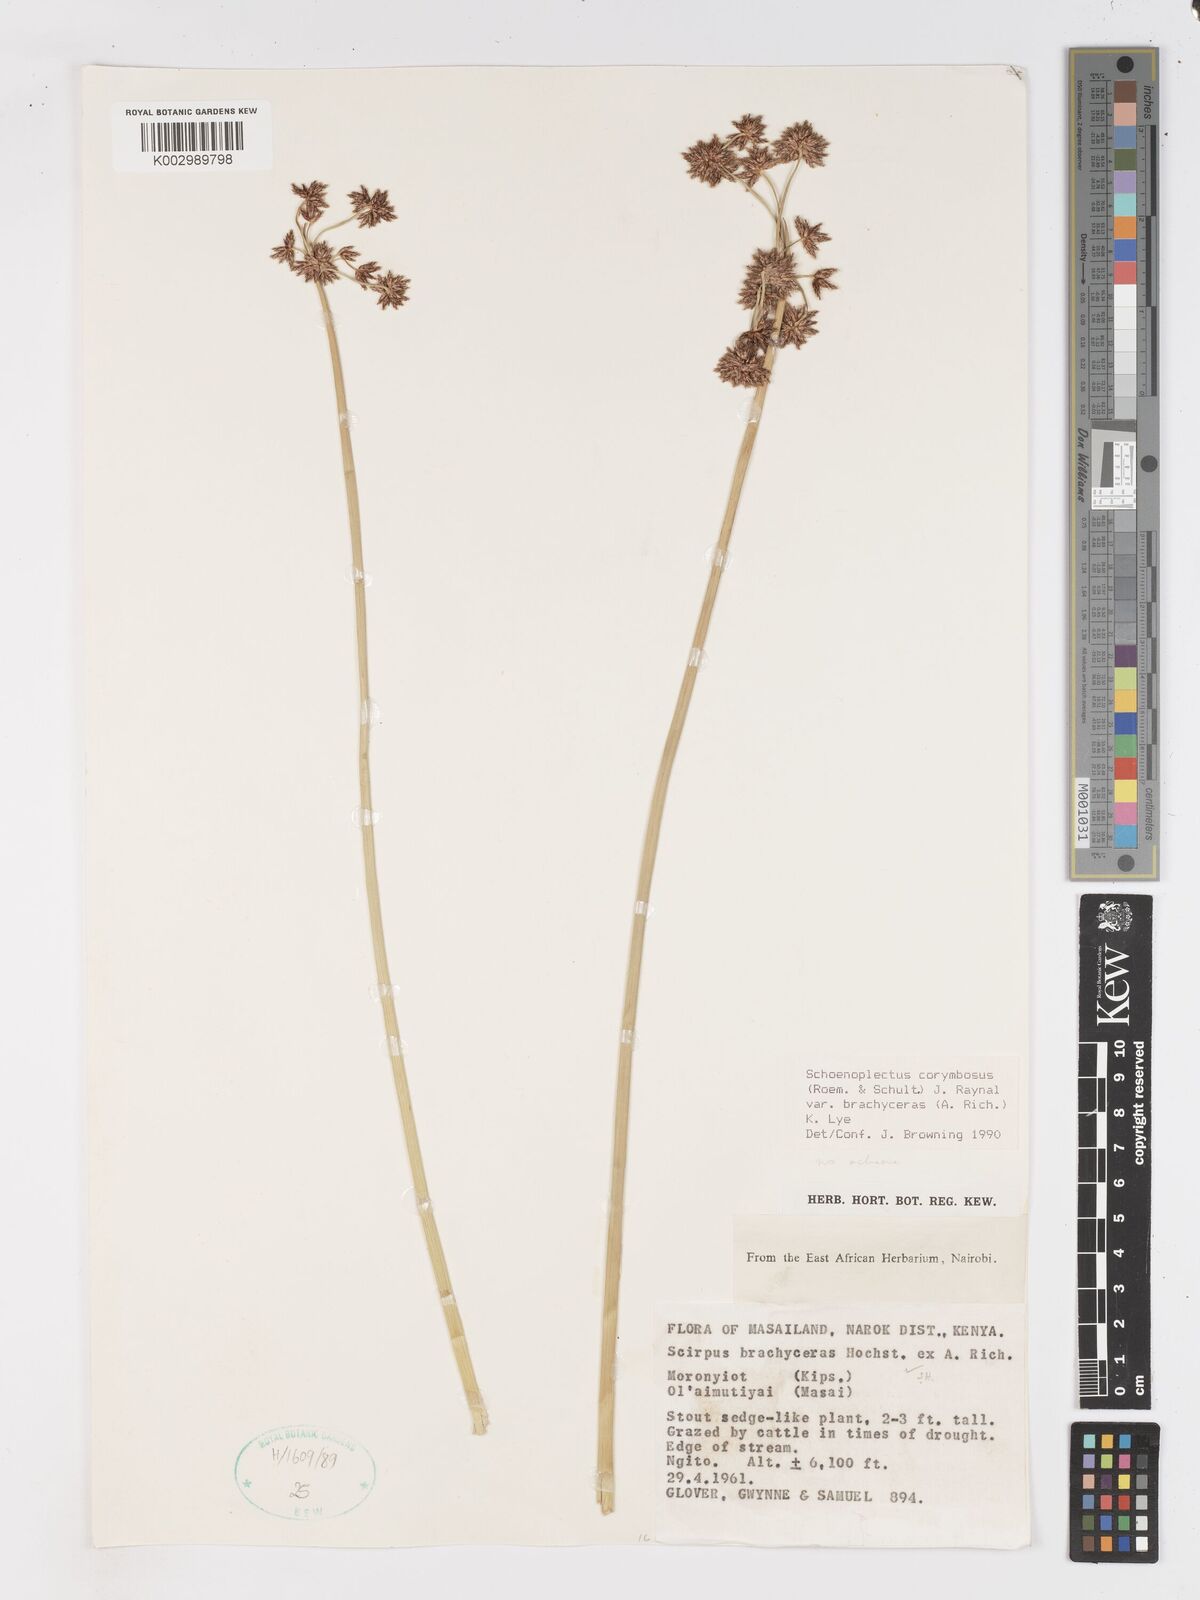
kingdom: Plantae
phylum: Tracheophyta
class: Liliopsida
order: Poales
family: Cyperaceae
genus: Schoenoplectiella
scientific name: Schoenoplectiella brachyceras
